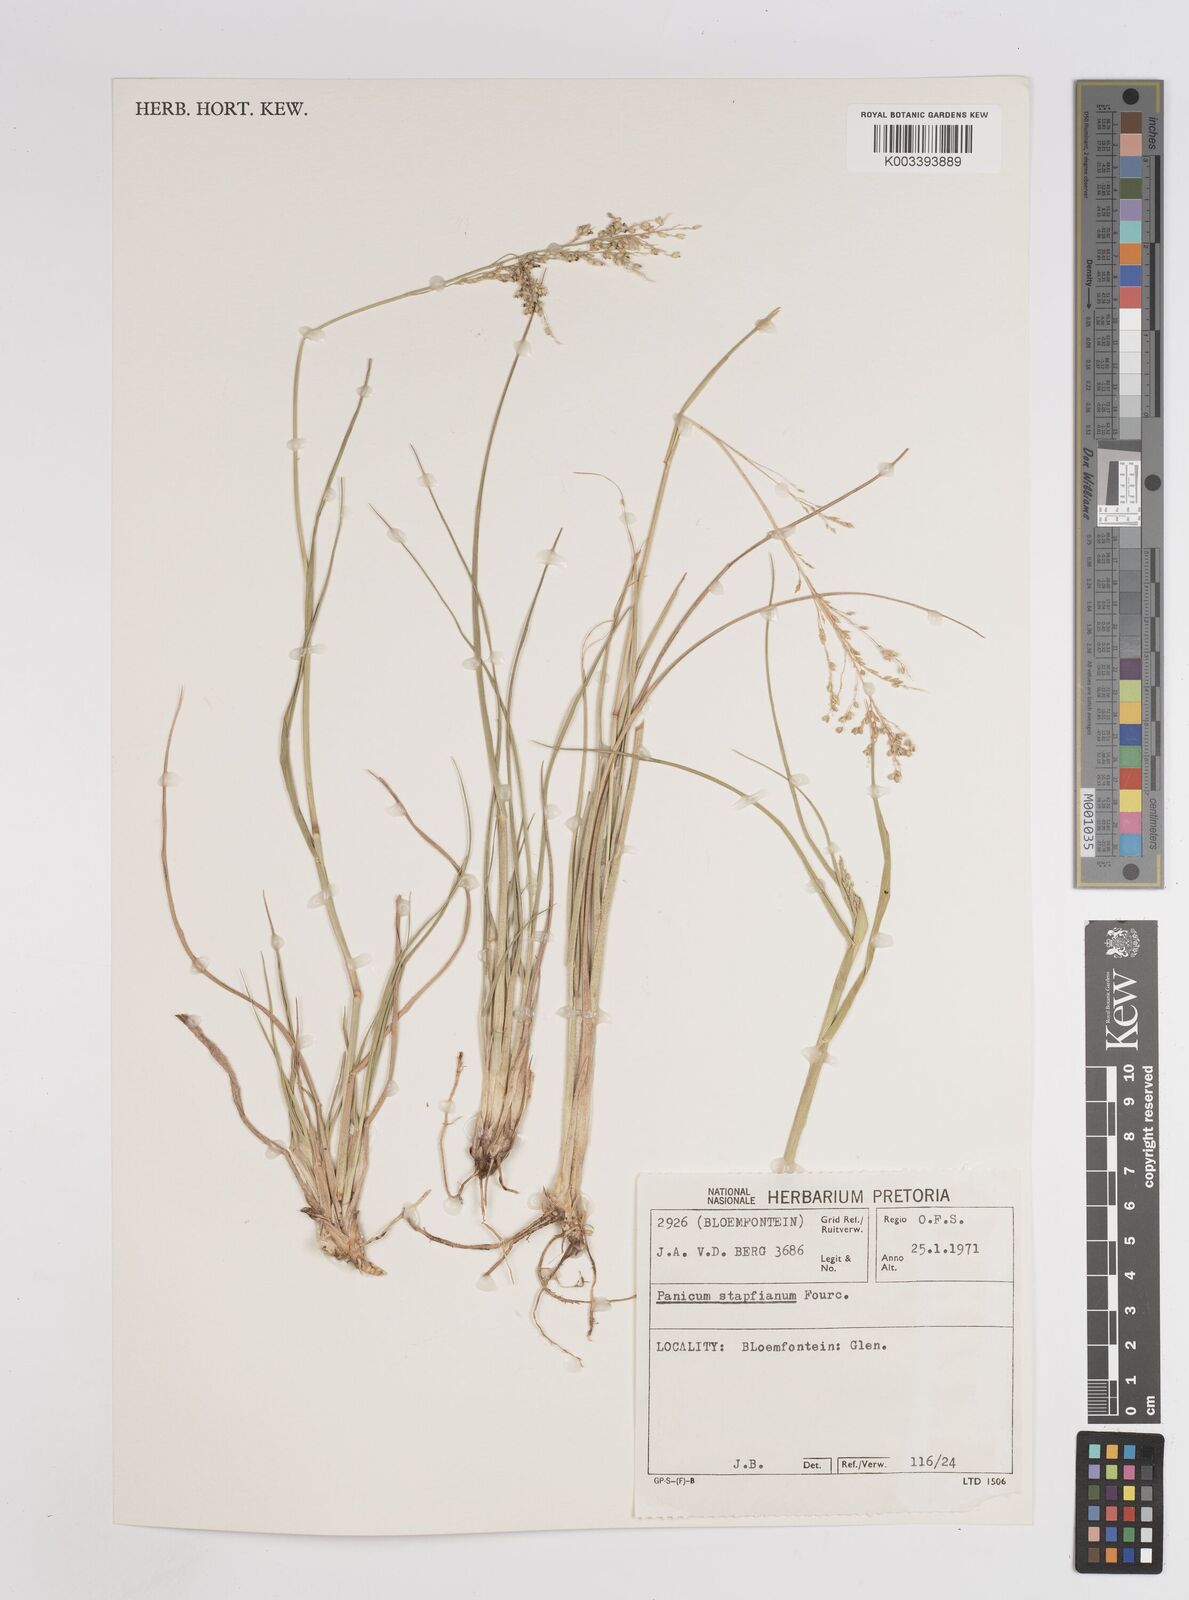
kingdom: Plantae
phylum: Tracheophyta
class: Liliopsida
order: Poales
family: Poaceae
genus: Panicum
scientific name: Panicum stapfianum
